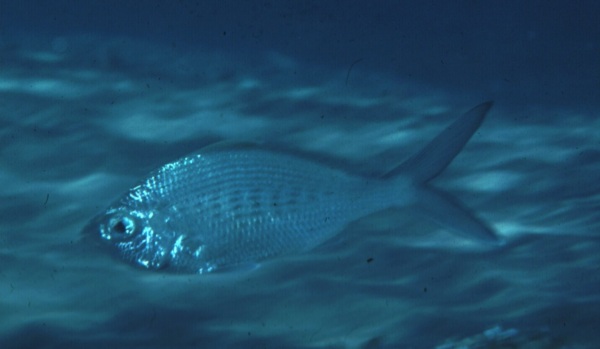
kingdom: Animalia
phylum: Chordata
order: Perciformes
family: Gerreidae
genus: Gerres
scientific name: Gerres oyena
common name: Common silver-biddy
